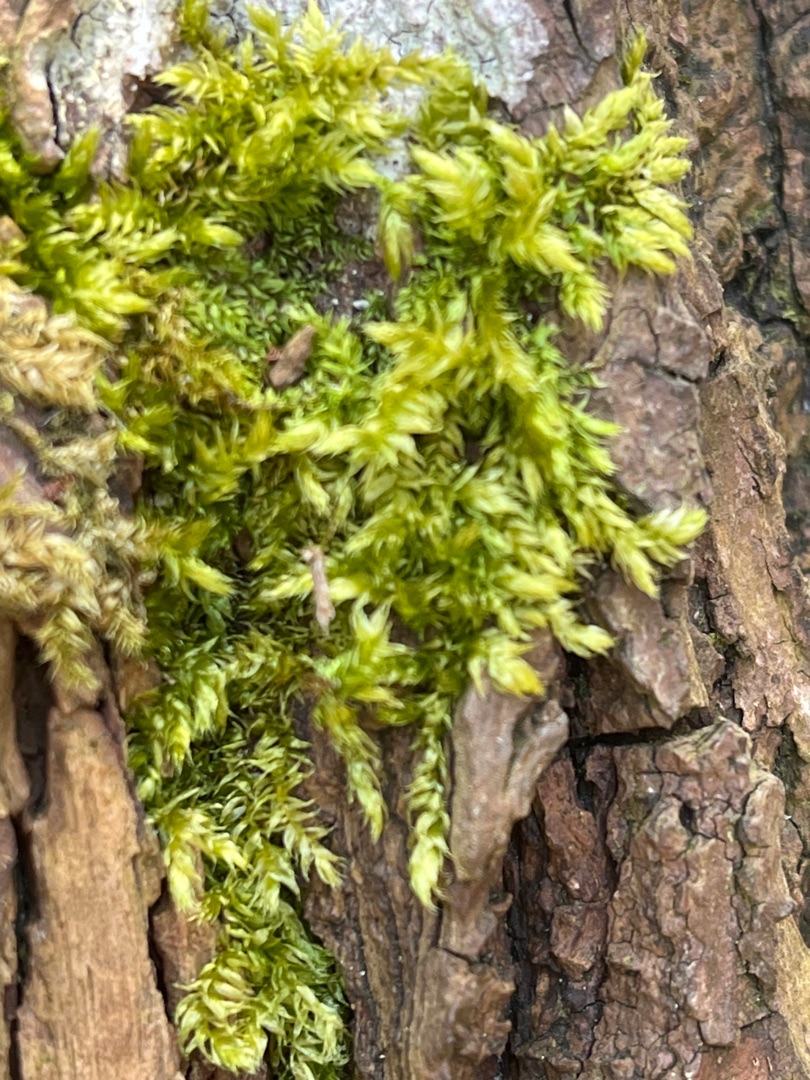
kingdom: Plantae
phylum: Bryophyta
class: Bryopsida
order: Hypnales
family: Brachytheciaceae
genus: Brachythecium
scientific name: Brachythecium rutabulum
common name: Almindelig kortkapsel
